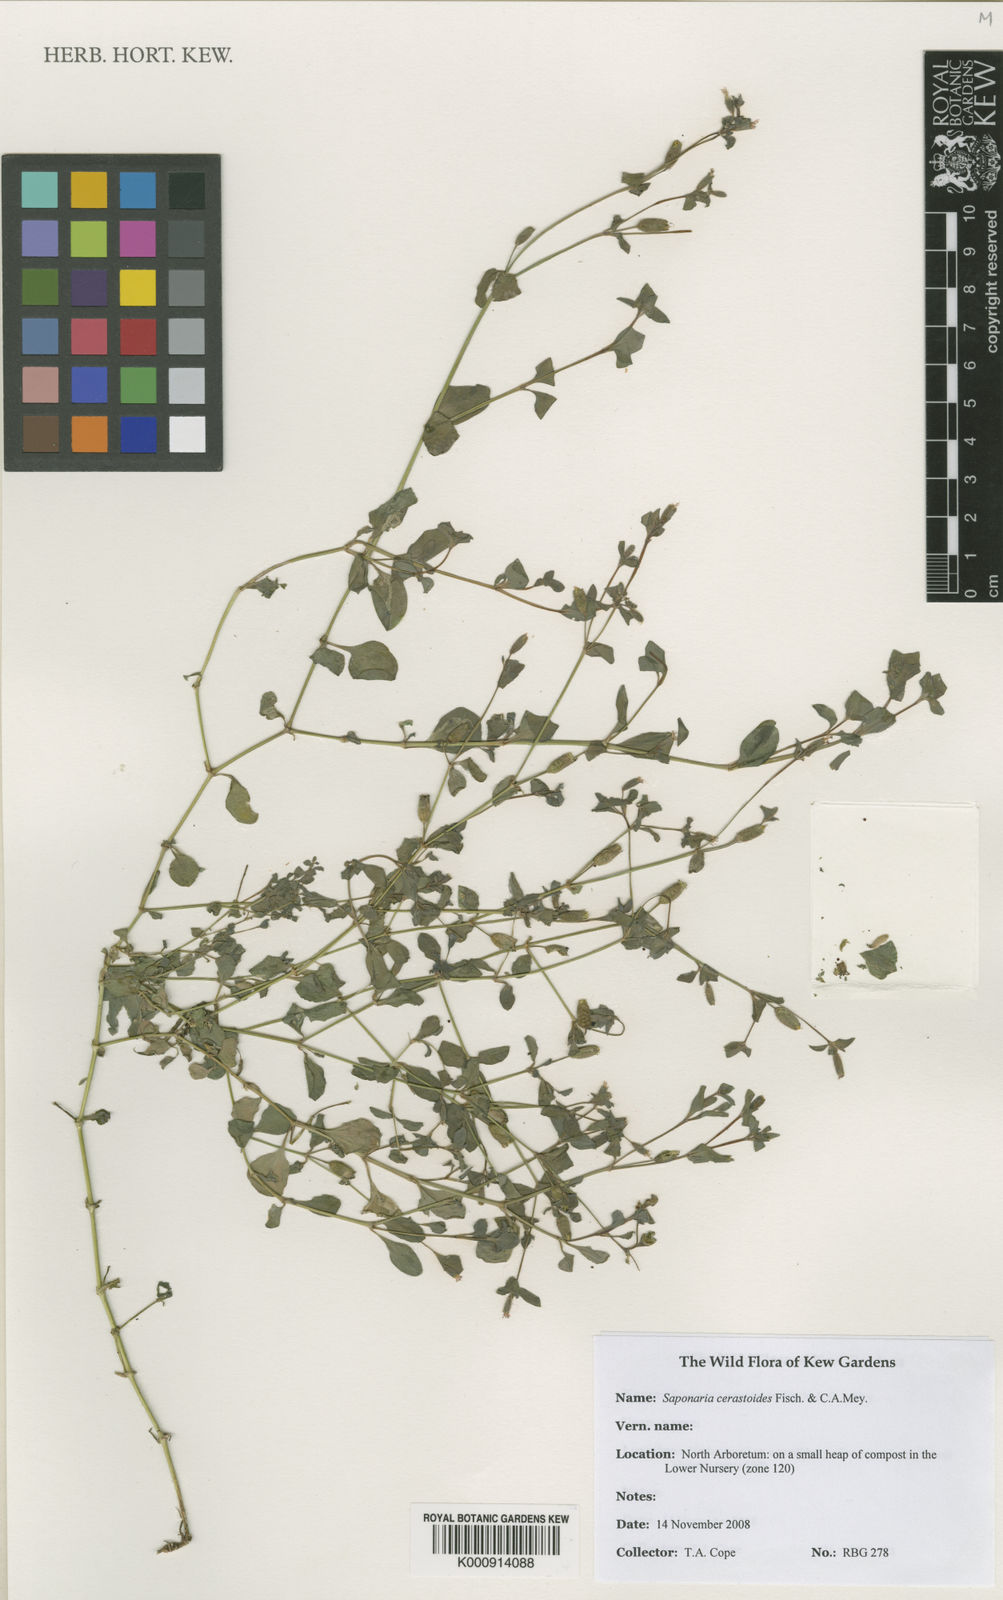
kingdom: Plantae
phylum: Tracheophyta
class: Magnoliopsida
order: Caryophyllales
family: Caryophyllaceae
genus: Saponaria
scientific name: Saponaria cerastoides
